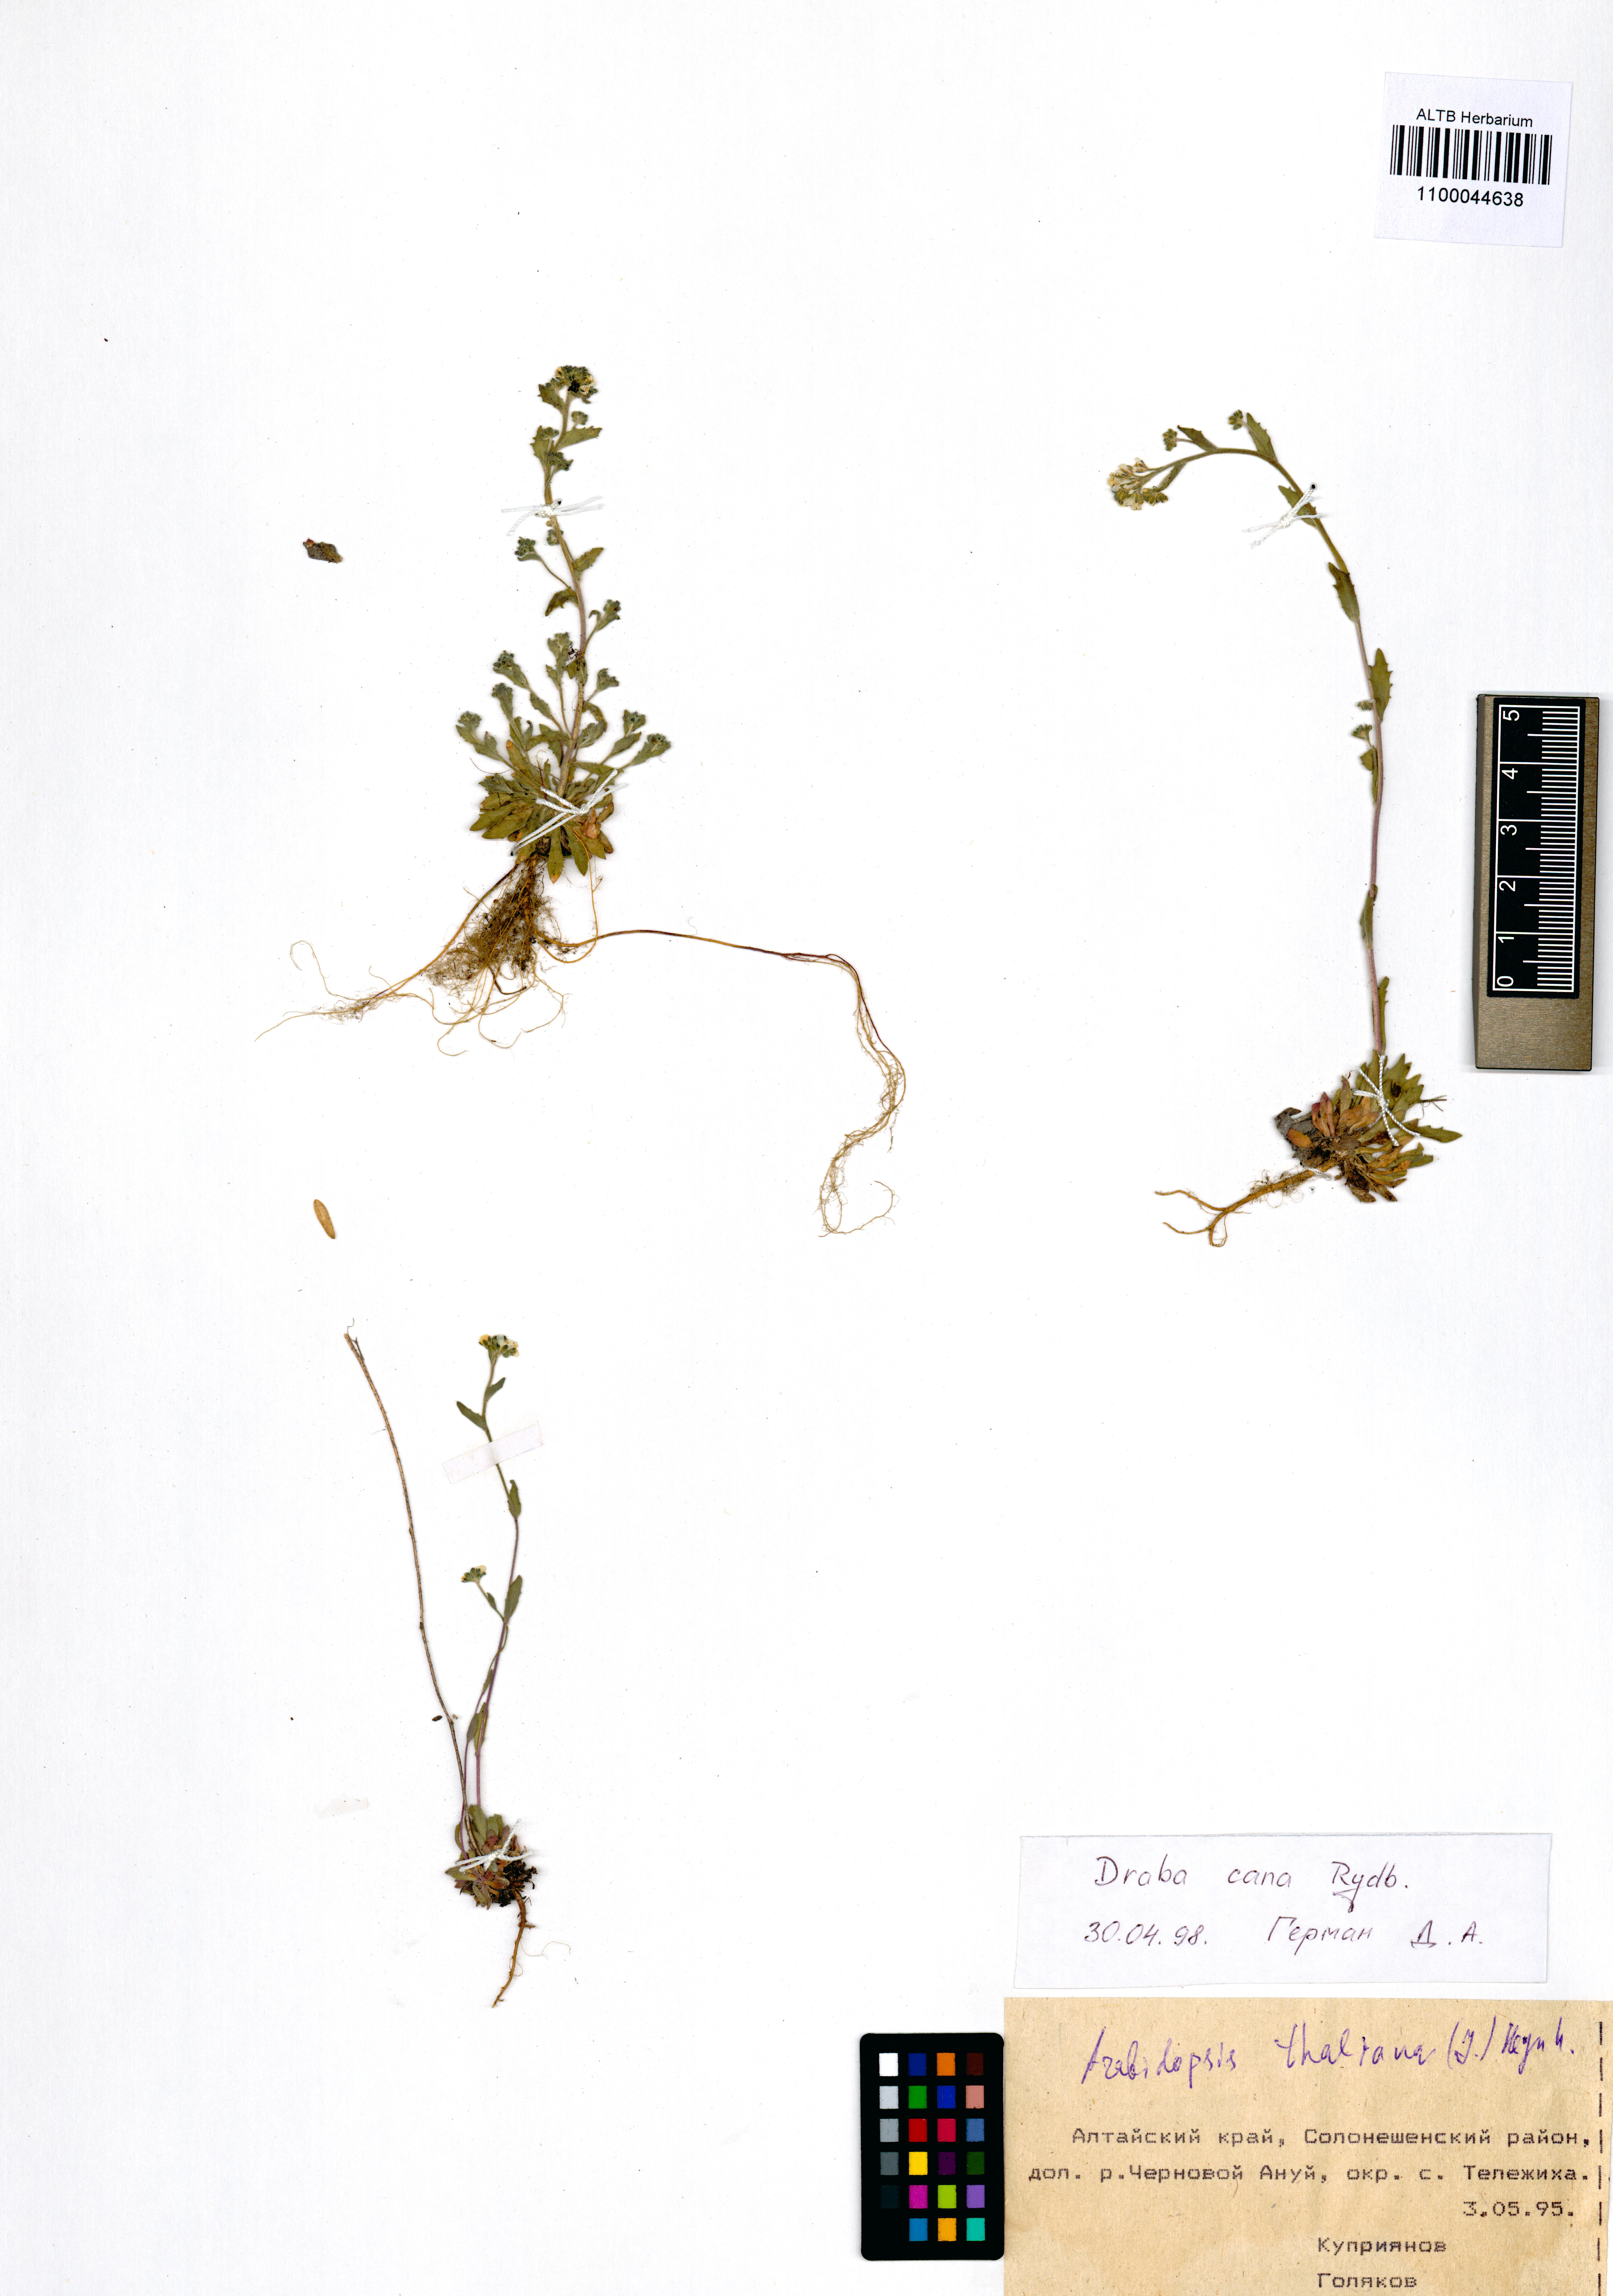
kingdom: Plantae
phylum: Tracheophyta
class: Magnoliopsida
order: Brassicales
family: Brassicaceae
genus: Draba
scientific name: Draba cana
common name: Hoary draba
